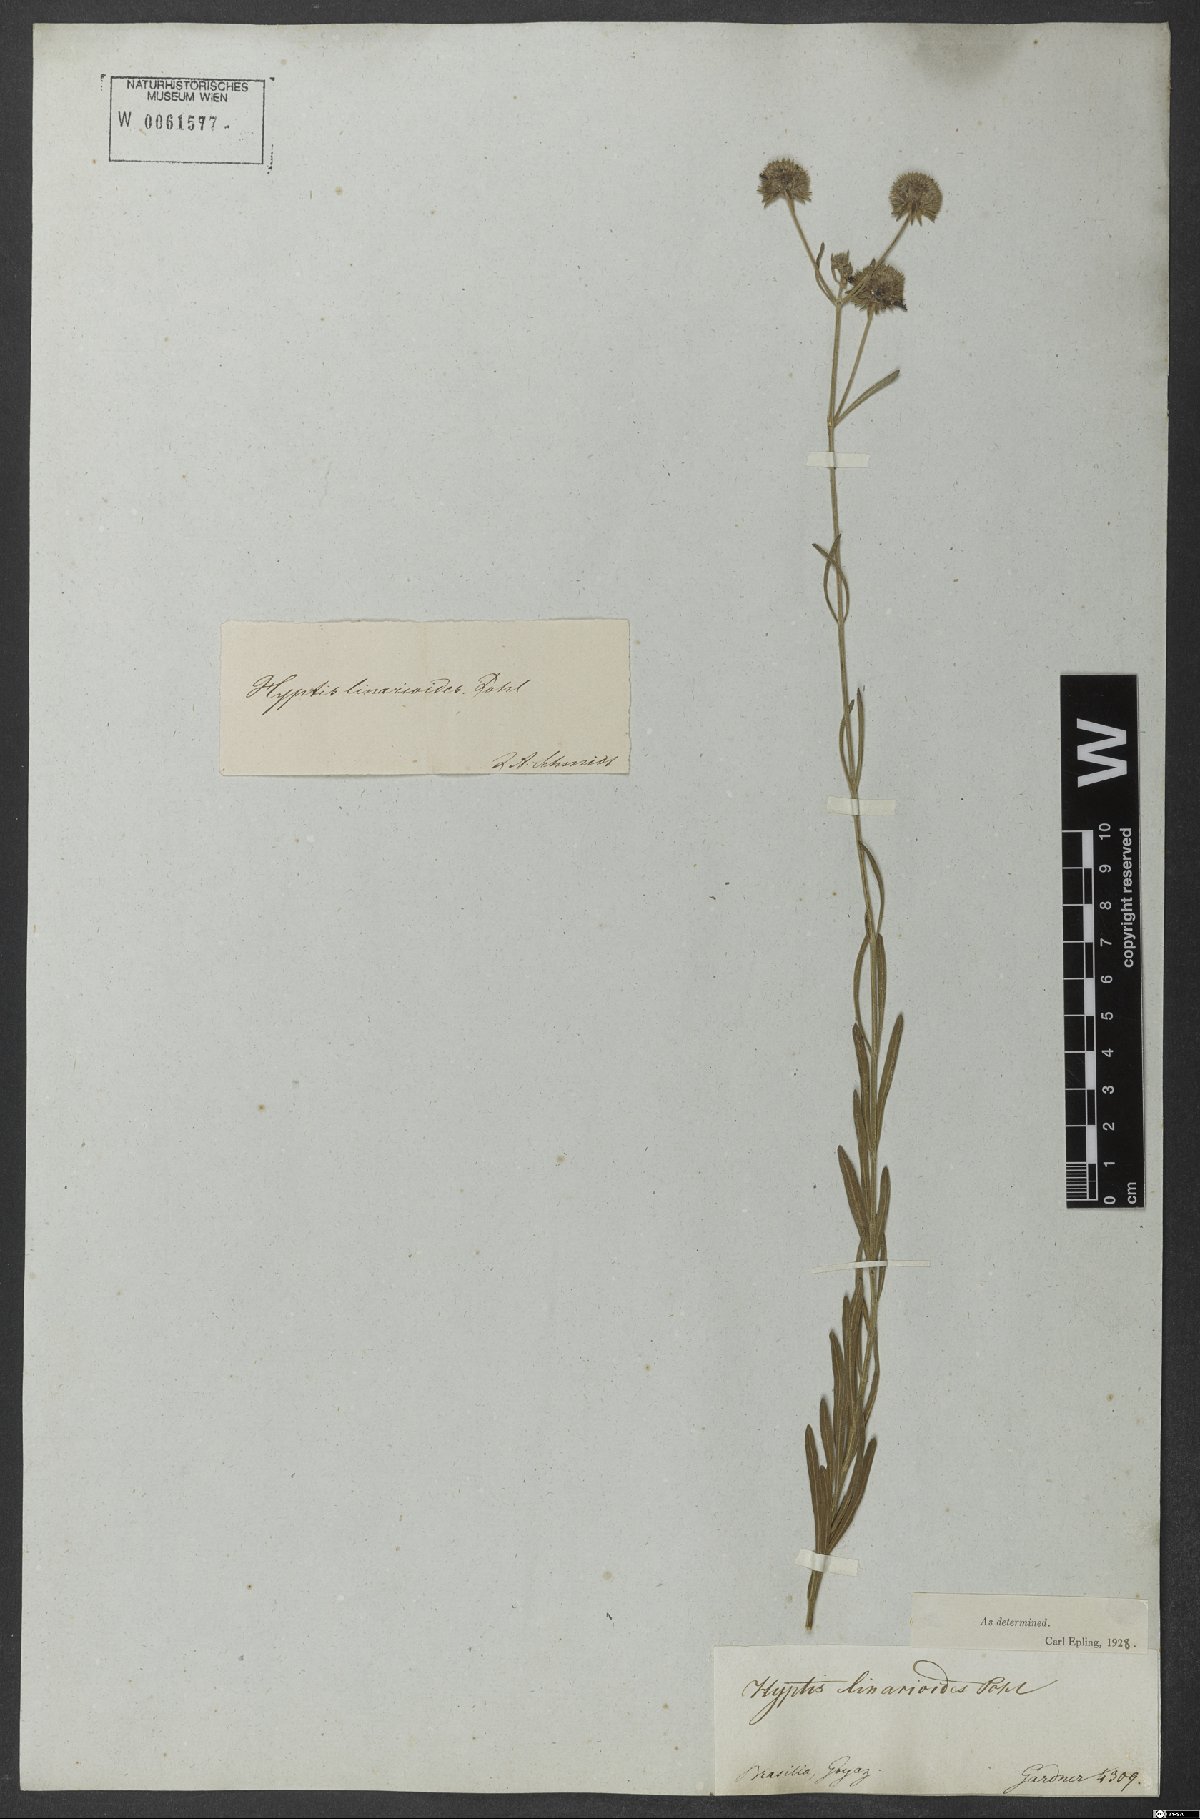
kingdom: Plantae
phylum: Tracheophyta
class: Magnoliopsida
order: Lamiales
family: Lamiaceae
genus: Hyptis
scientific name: Hyptis linarioides
